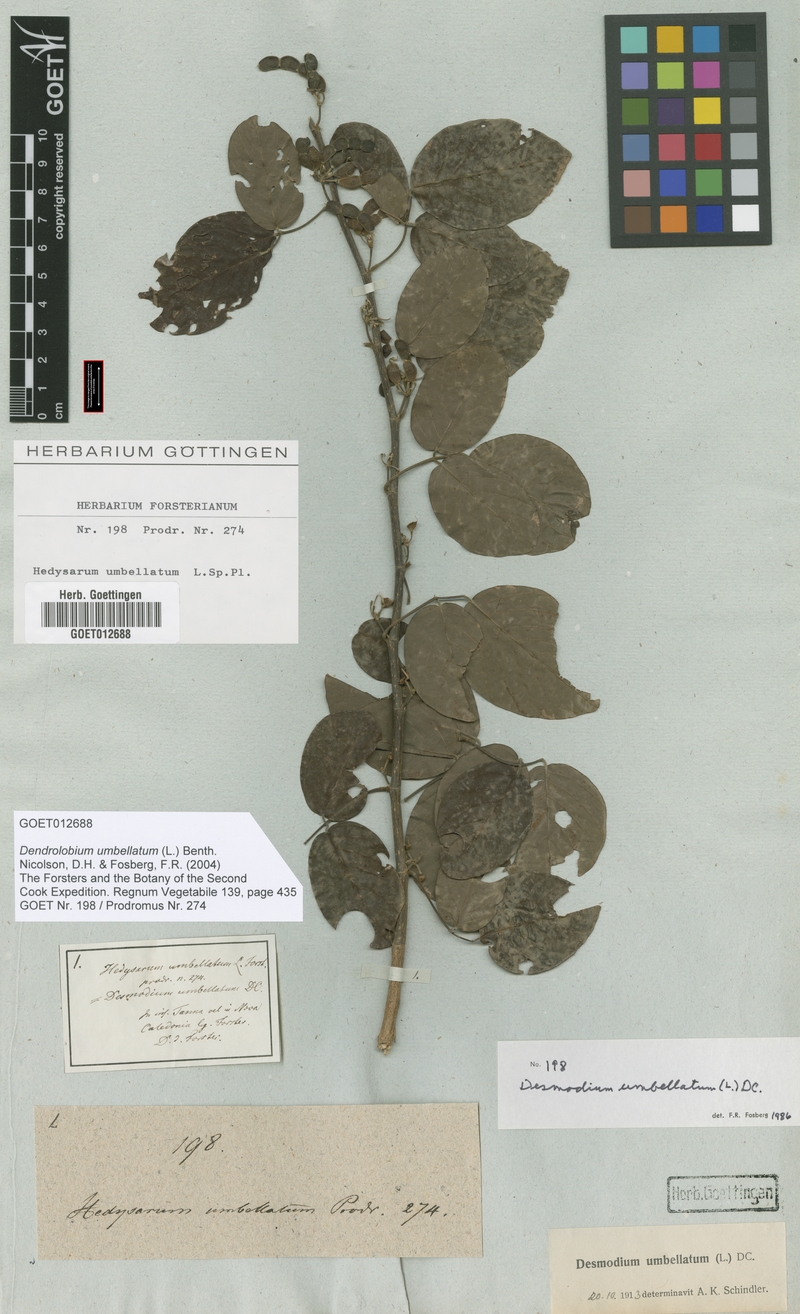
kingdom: Plantae
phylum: Tracheophyta
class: Magnoliopsida
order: Fabales
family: Fabaceae
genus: Dendrolobium
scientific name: Dendrolobium umbellatum
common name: Horsebush
